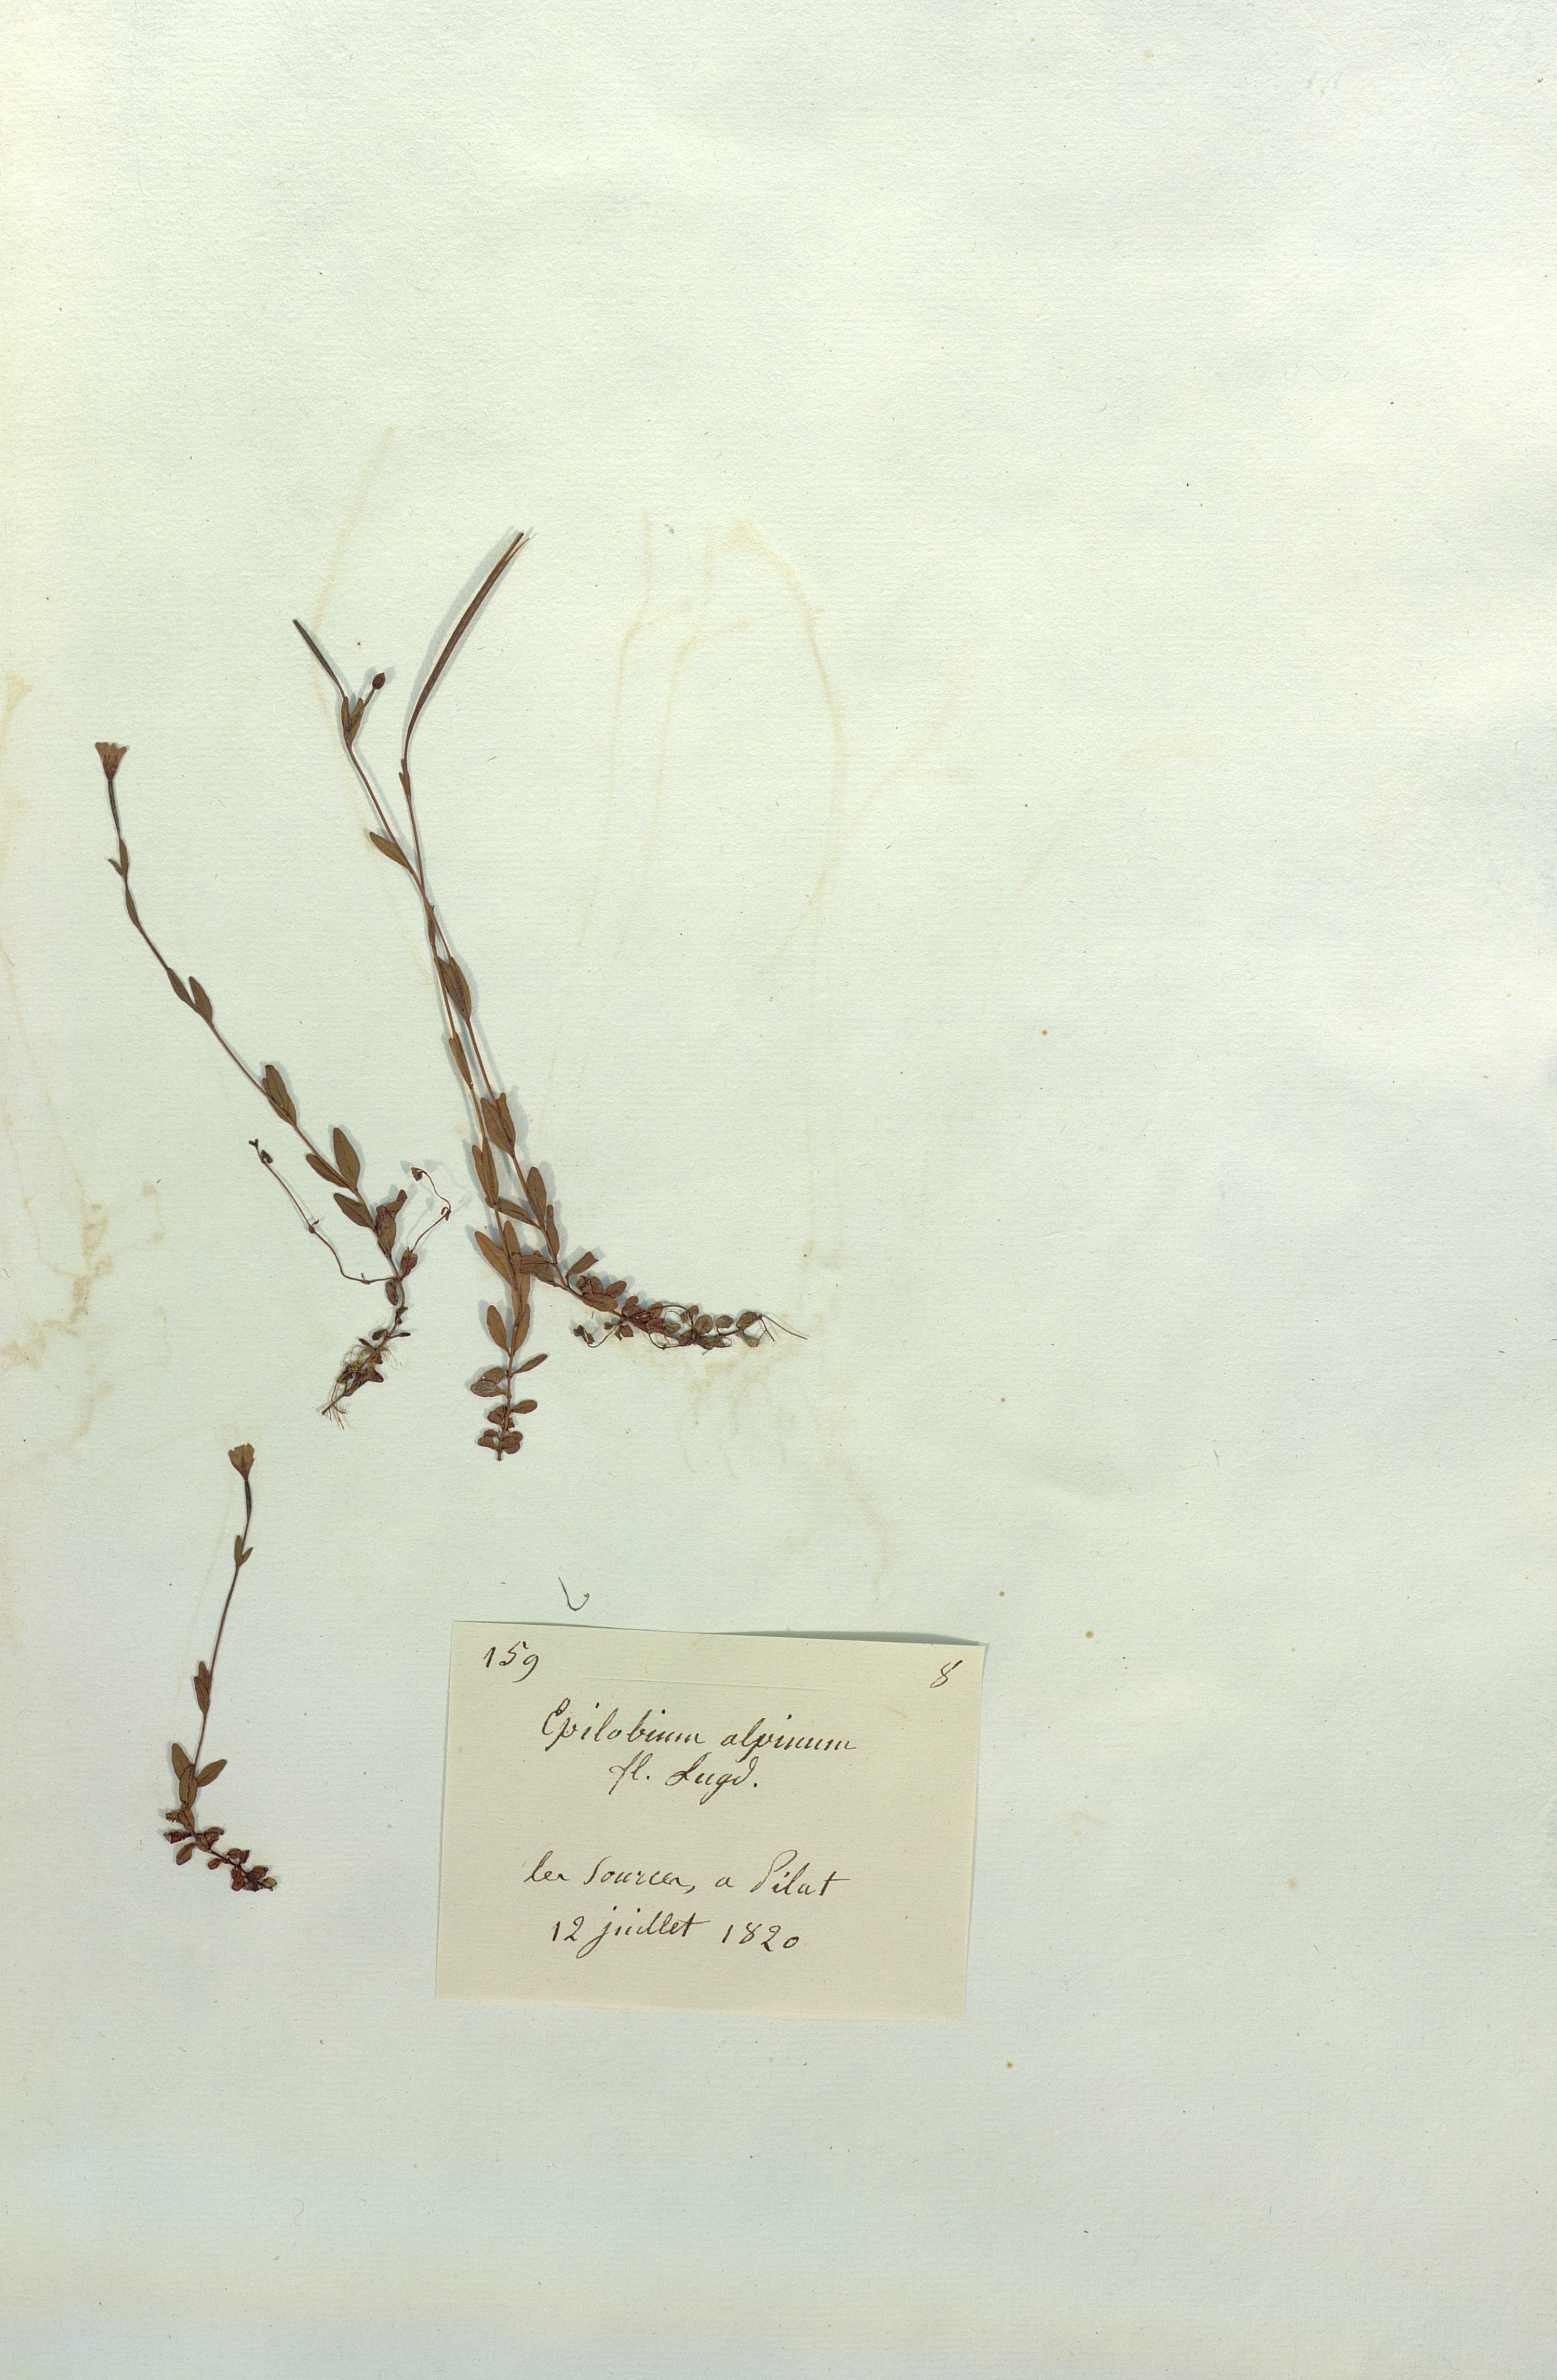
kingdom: Plantae
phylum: Tracheophyta
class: Magnoliopsida
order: Myrtales
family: Onagraceae
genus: Epilobium
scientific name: Epilobium alpinum
